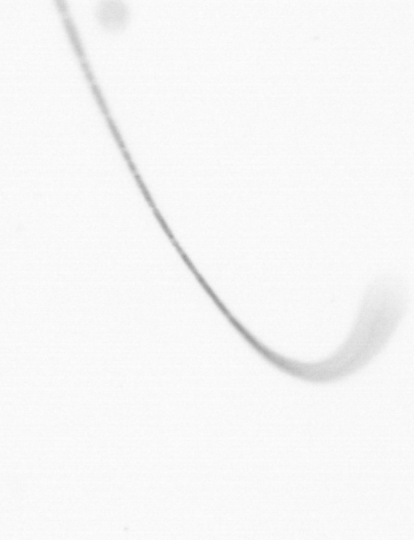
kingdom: Chromista
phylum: Ochrophyta
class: Bacillariophyceae
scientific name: Bacillariophyceae
